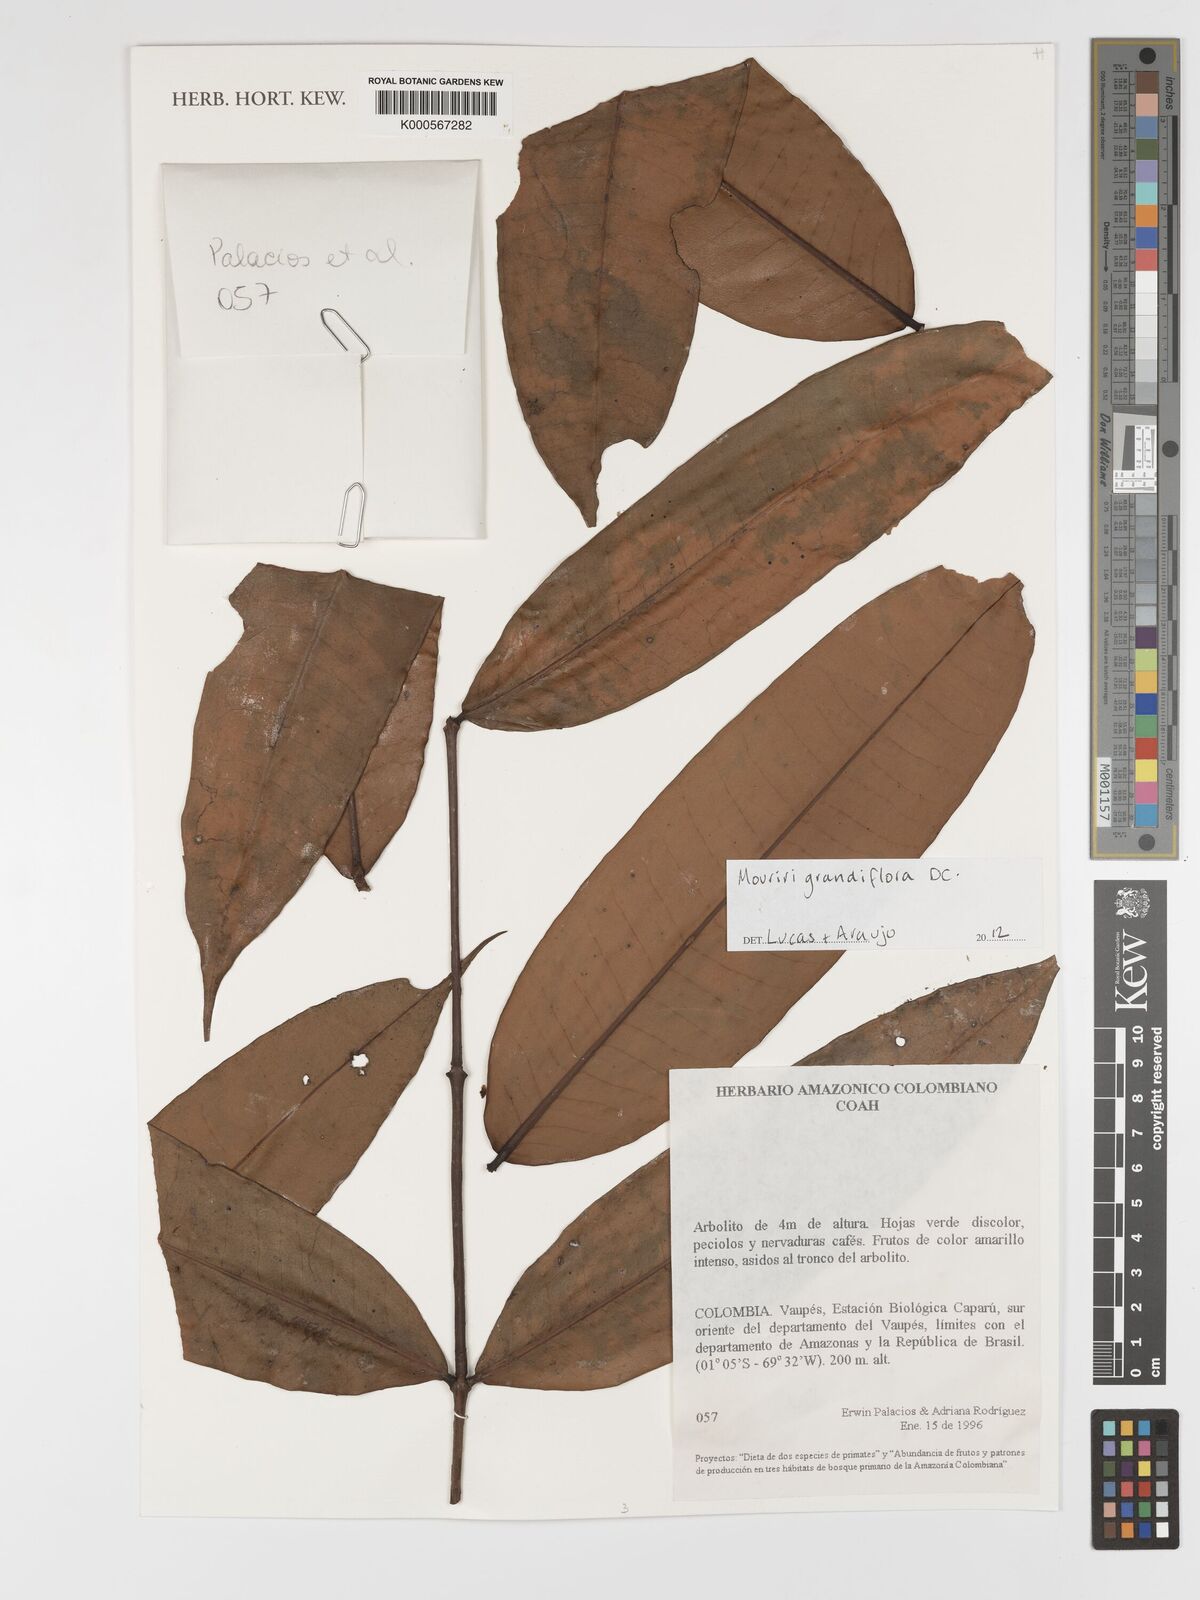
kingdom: Plantae
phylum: Tracheophyta
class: Magnoliopsida
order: Myrtales
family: Melastomataceae
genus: Mouriri
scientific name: Mouriri grandiflora
